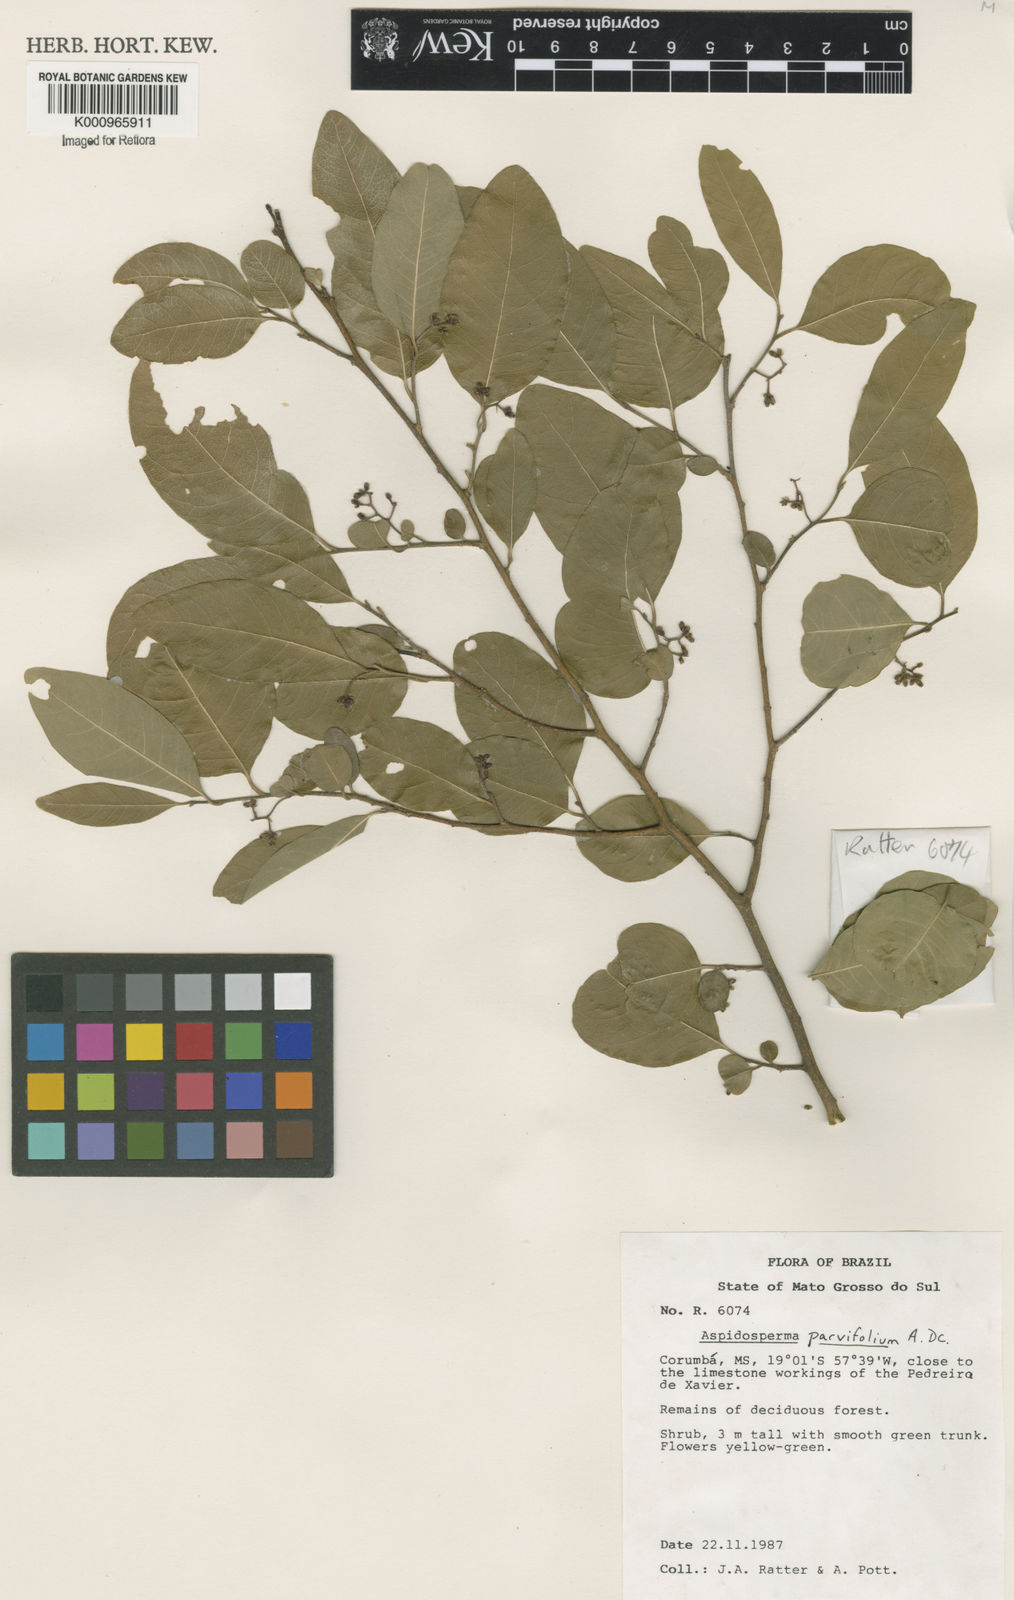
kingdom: Plantae
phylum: Tracheophyta
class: Magnoliopsida
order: Gentianales
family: Apocynaceae
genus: Aspidosperma
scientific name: Aspidosperma
